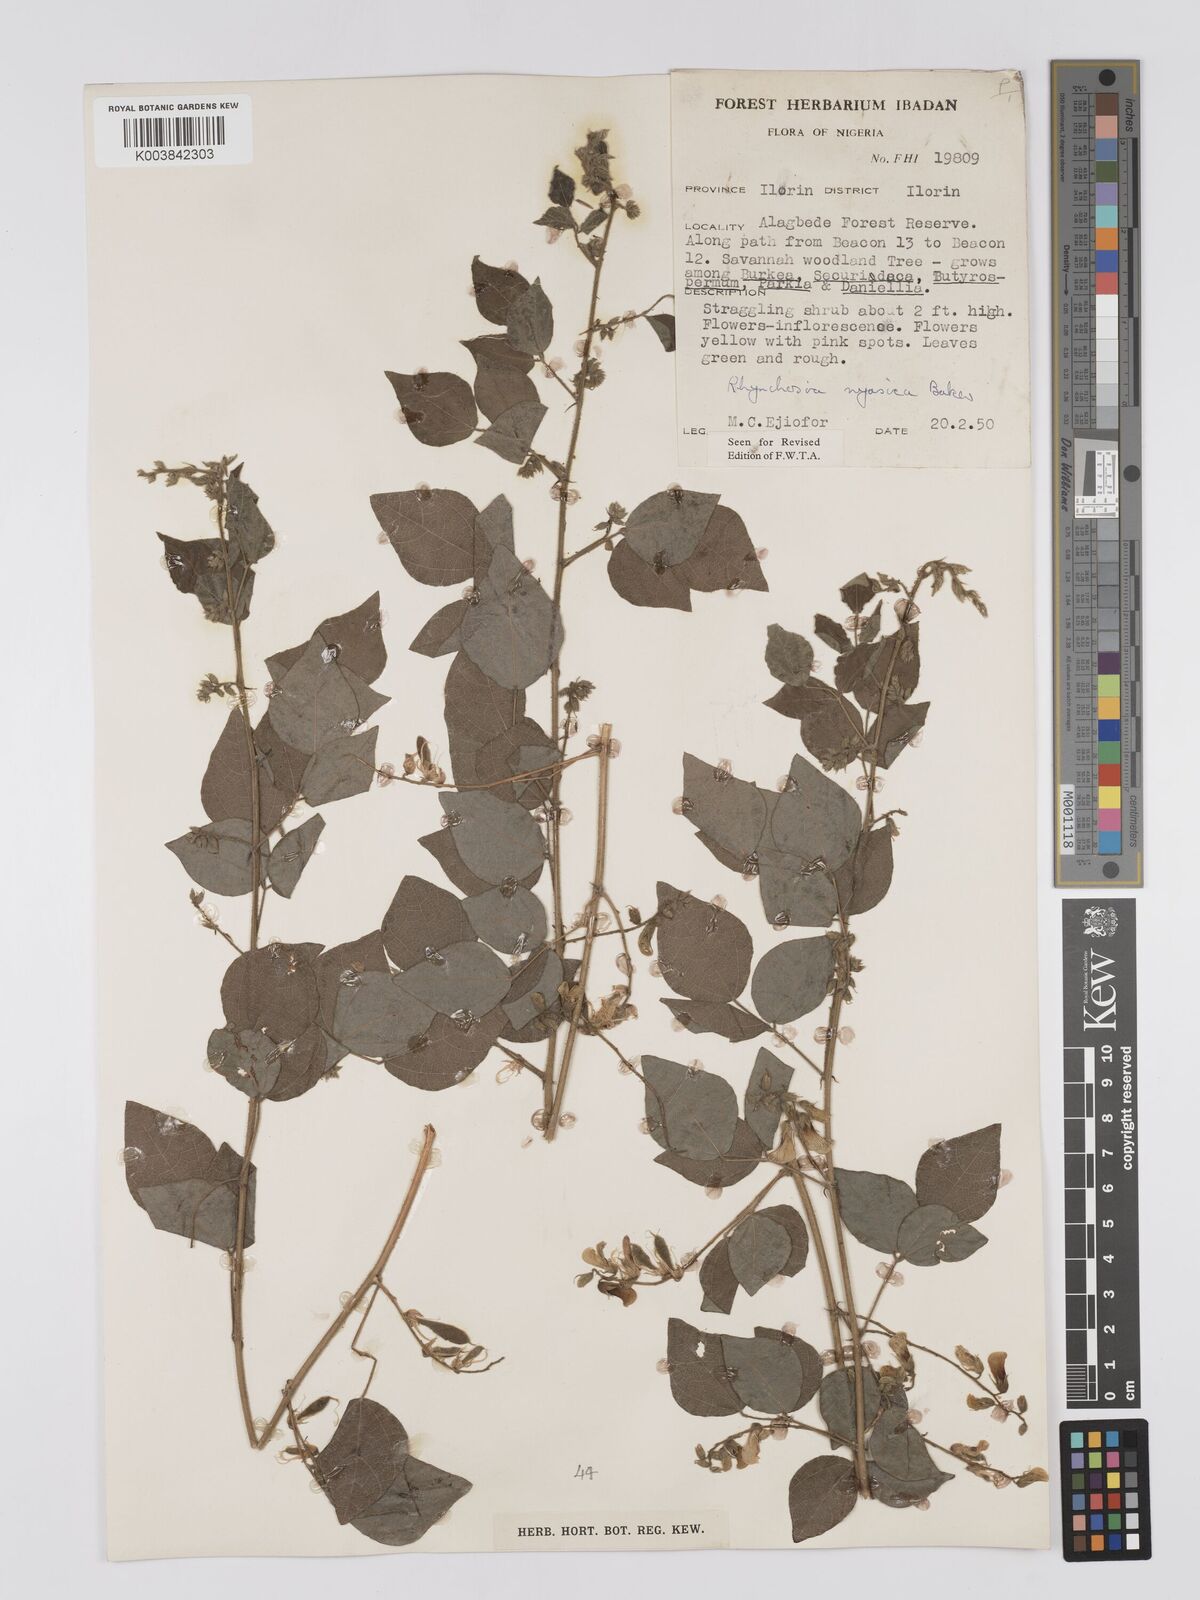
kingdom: Plantae
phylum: Tracheophyta
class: Magnoliopsida
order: Fabales
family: Fabaceae
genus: Rhynchosia
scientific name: Rhynchosia nyasica
